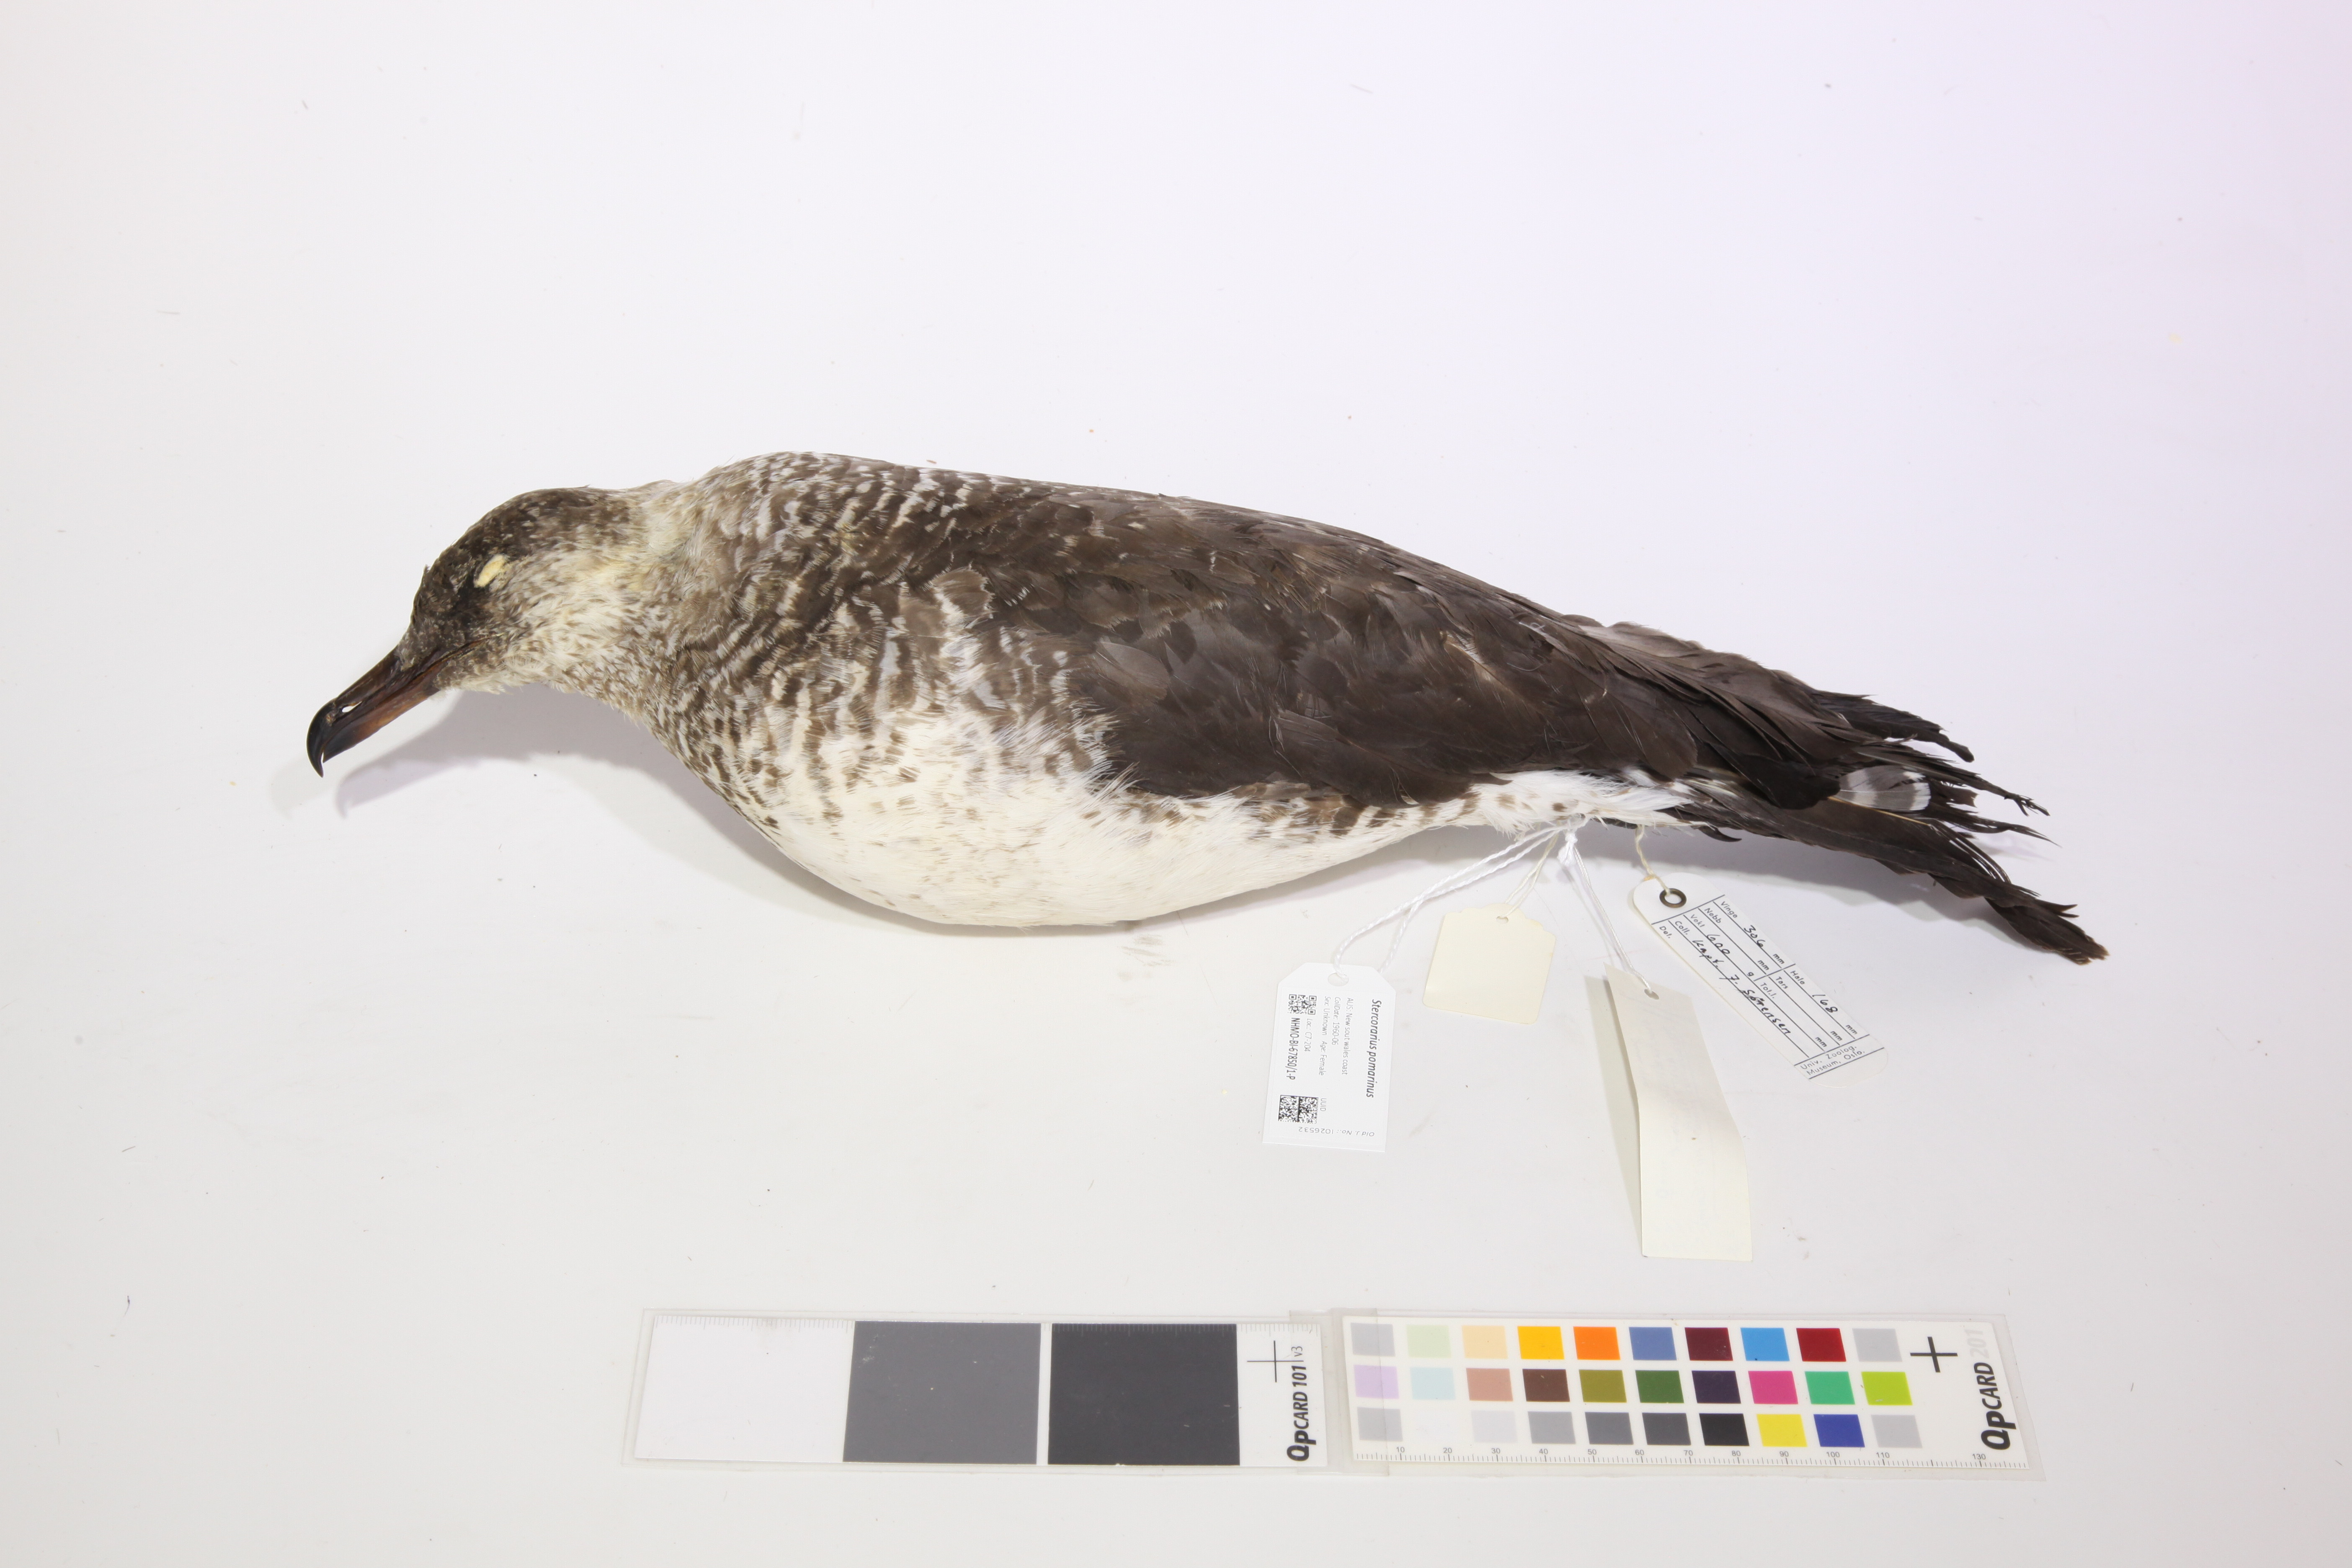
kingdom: Animalia
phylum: Chordata
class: Aves
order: Charadriiformes
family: Stercorariidae
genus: Stercorarius
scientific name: Stercorarius pomarinus
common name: Pomarine jaeger
